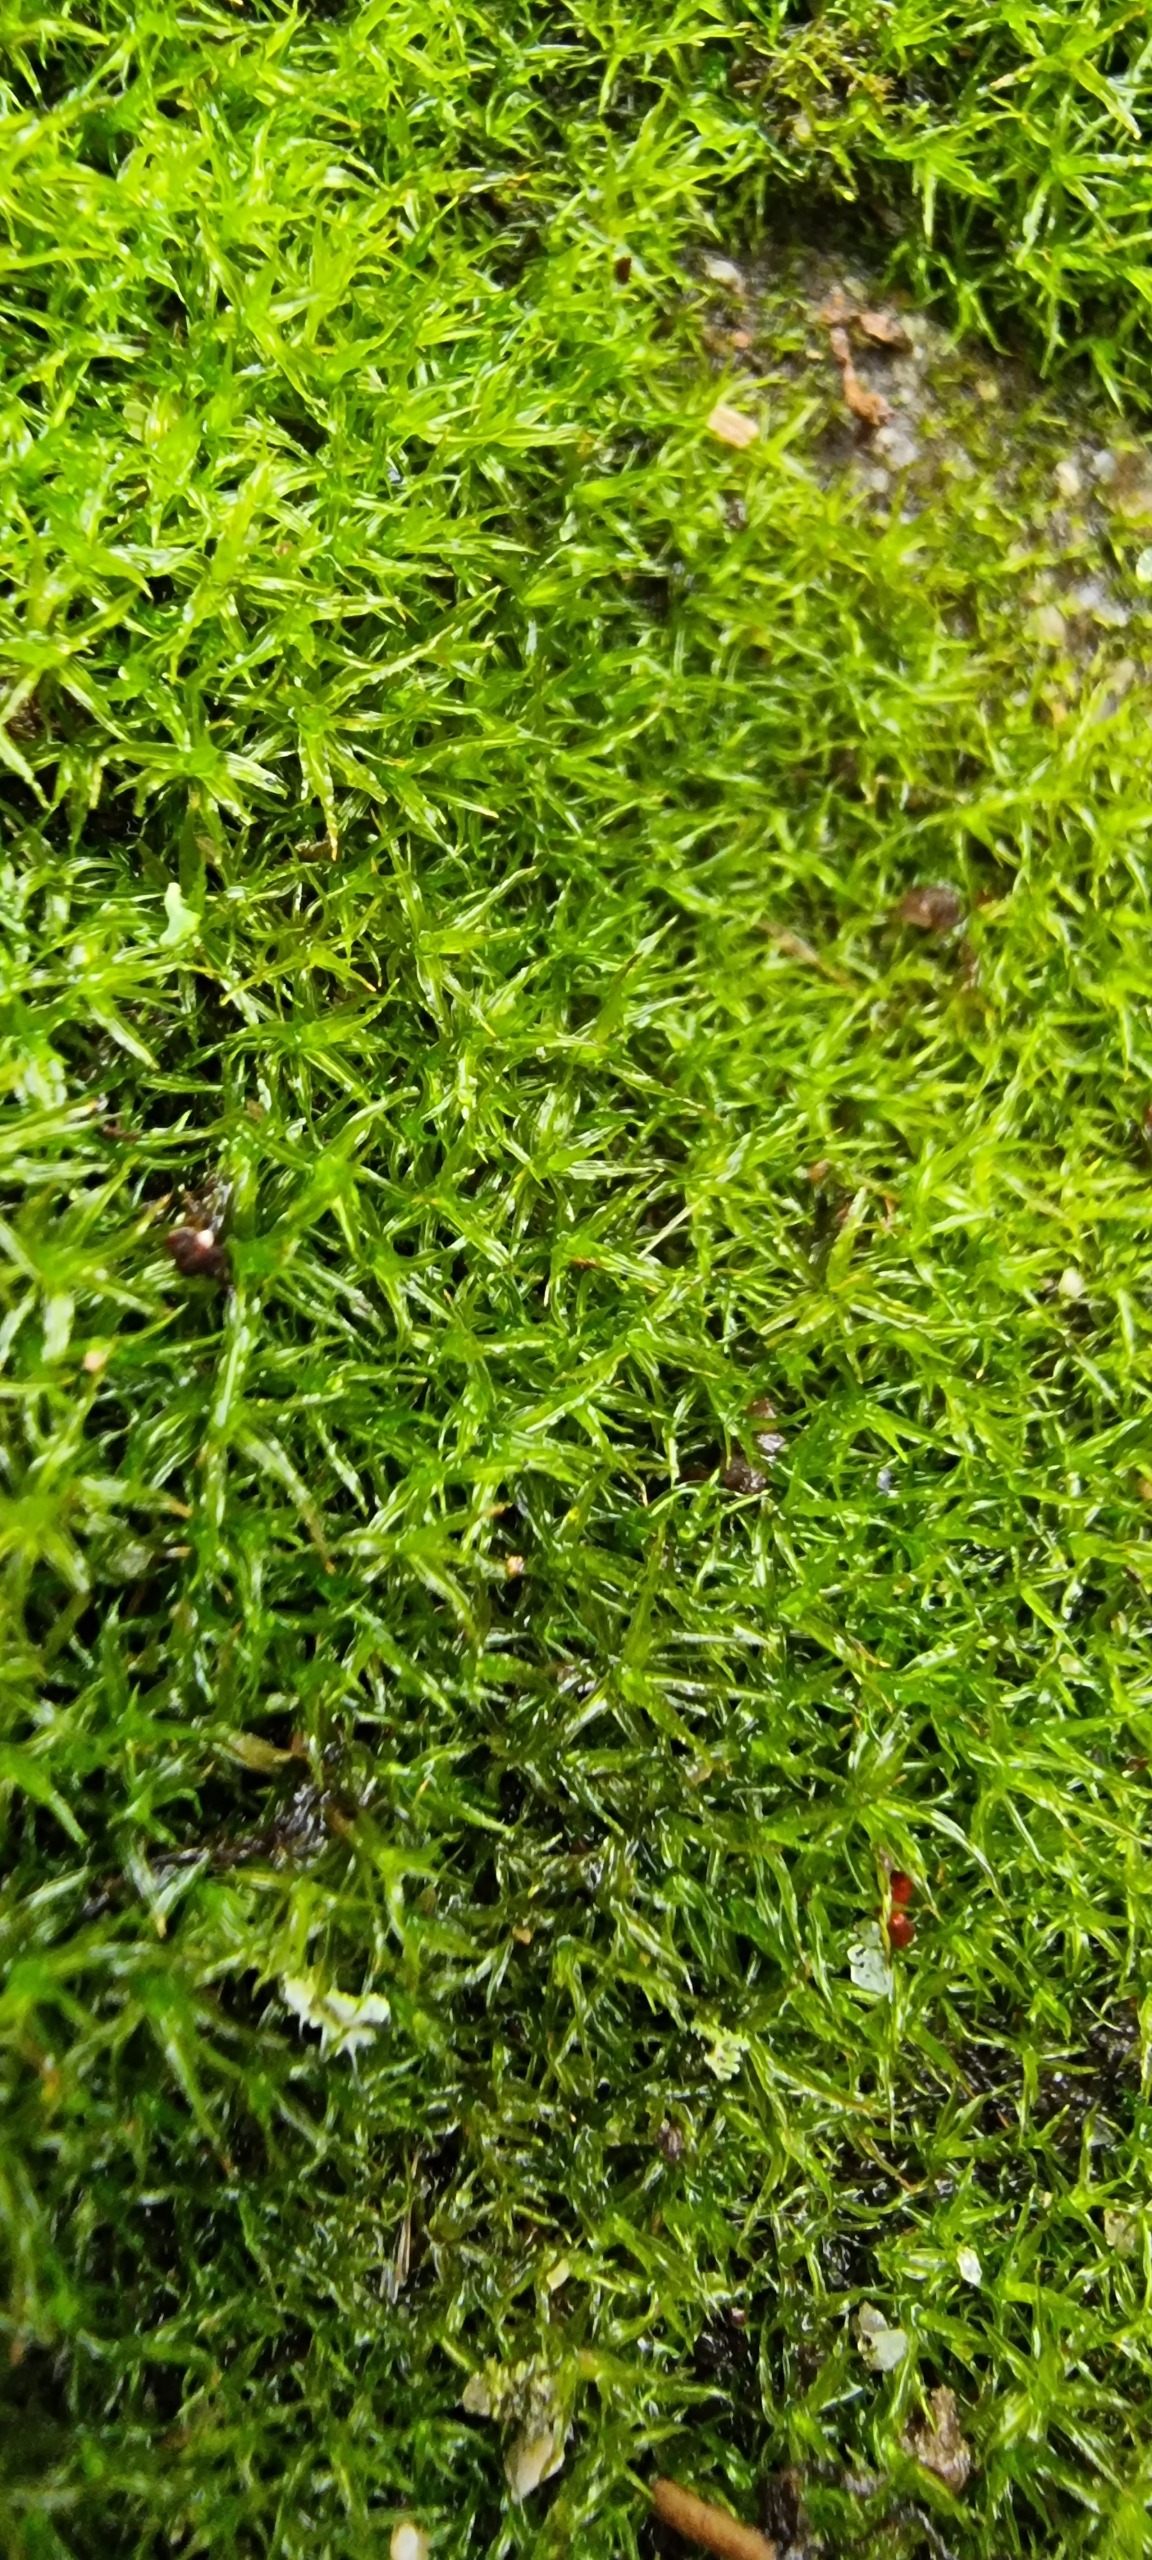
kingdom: Plantae
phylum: Bryophyta
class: Bryopsida
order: Pottiales
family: Pottiaceae
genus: Husnotiella
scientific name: Husnotiella sinuosa
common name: Bølget kalktuemos
